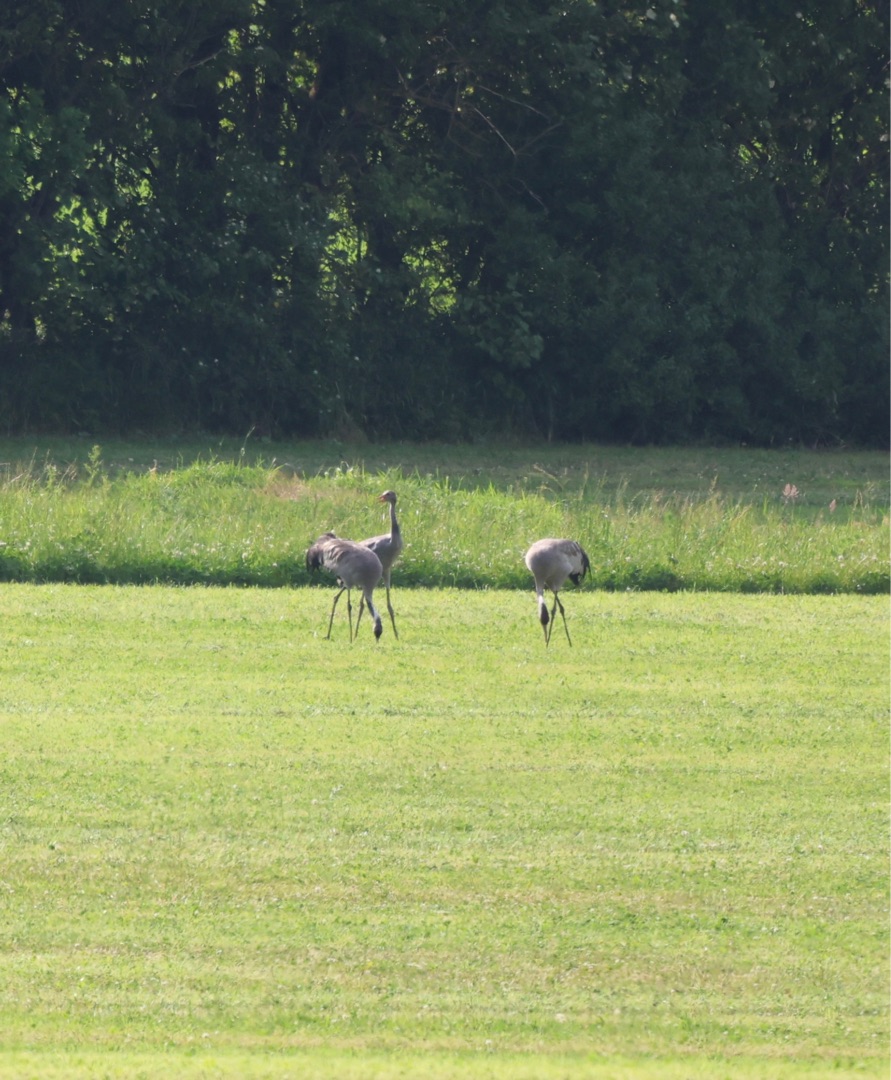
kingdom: Animalia
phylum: Chordata
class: Aves
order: Gruiformes
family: Gruidae
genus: Grus
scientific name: Grus grus
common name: Trane
